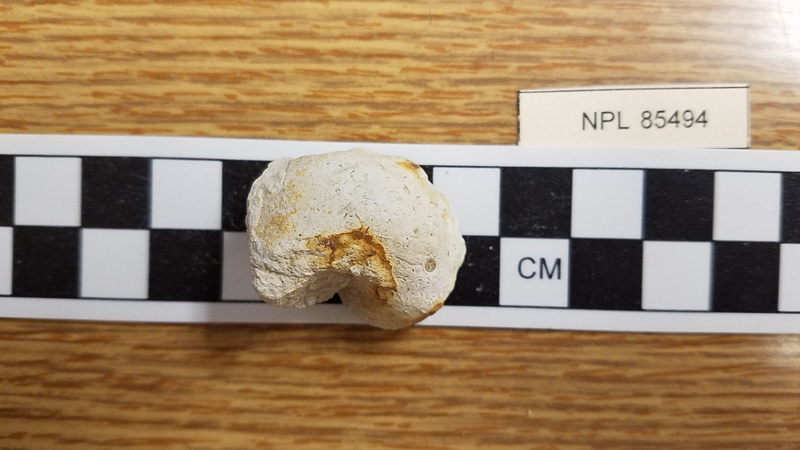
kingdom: Animalia
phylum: Mollusca
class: Gastropoda
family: Cerithiidae
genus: Cerithium
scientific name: Cerithium
